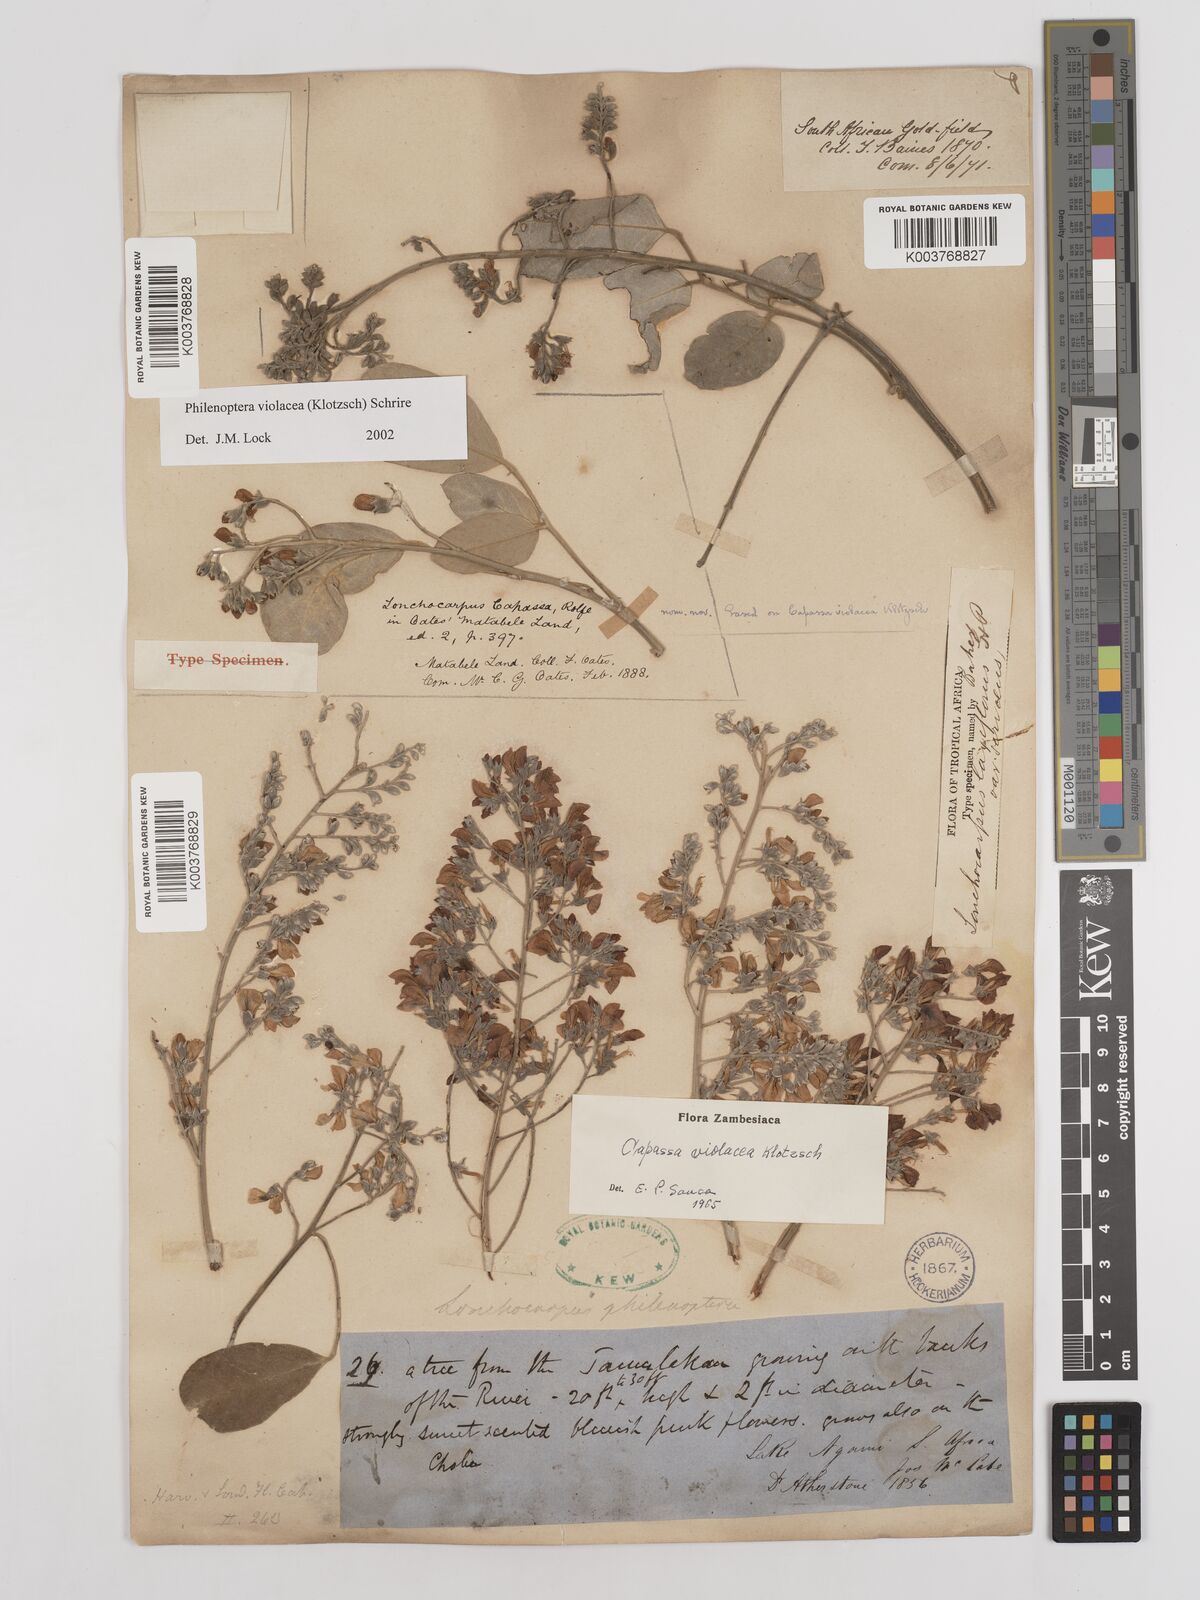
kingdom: Plantae
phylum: Tracheophyta
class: Magnoliopsida
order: Fabales
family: Fabaceae
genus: Philenoptera
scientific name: Philenoptera violacea
